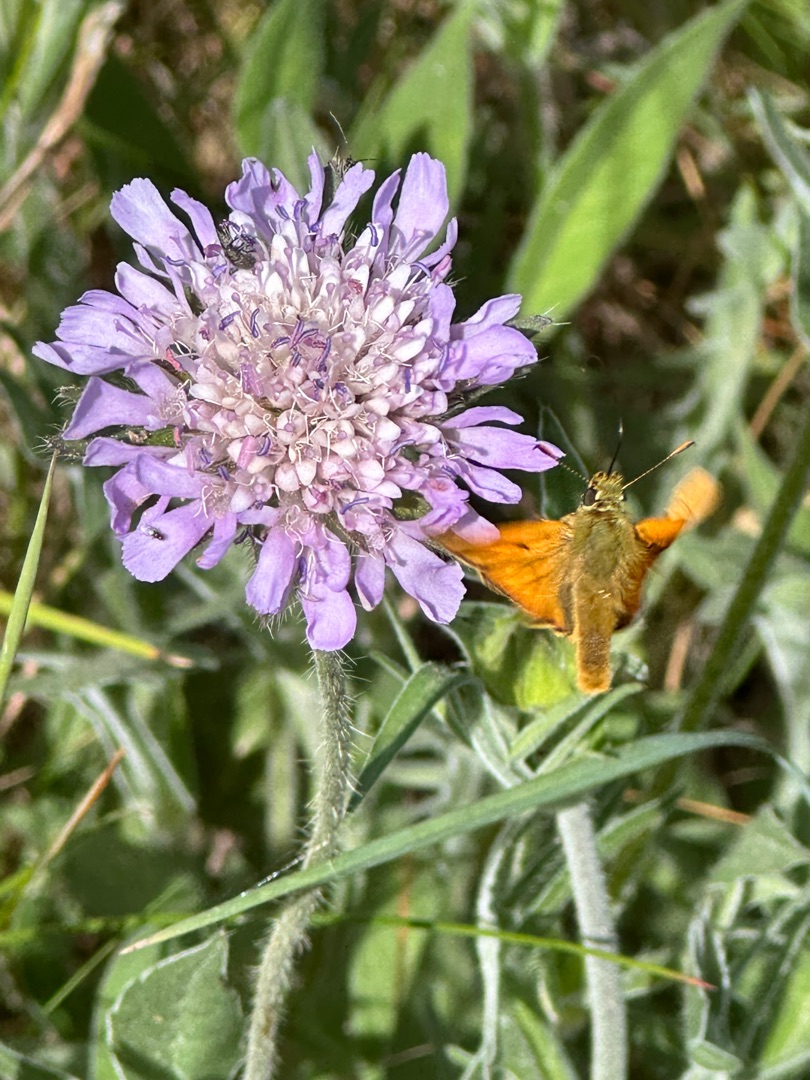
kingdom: Animalia
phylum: Arthropoda
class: Insecta
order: Lepidoptera
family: Hesperiidae
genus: Ochlodes
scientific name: Ochlodes venata
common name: Stor bredpande
